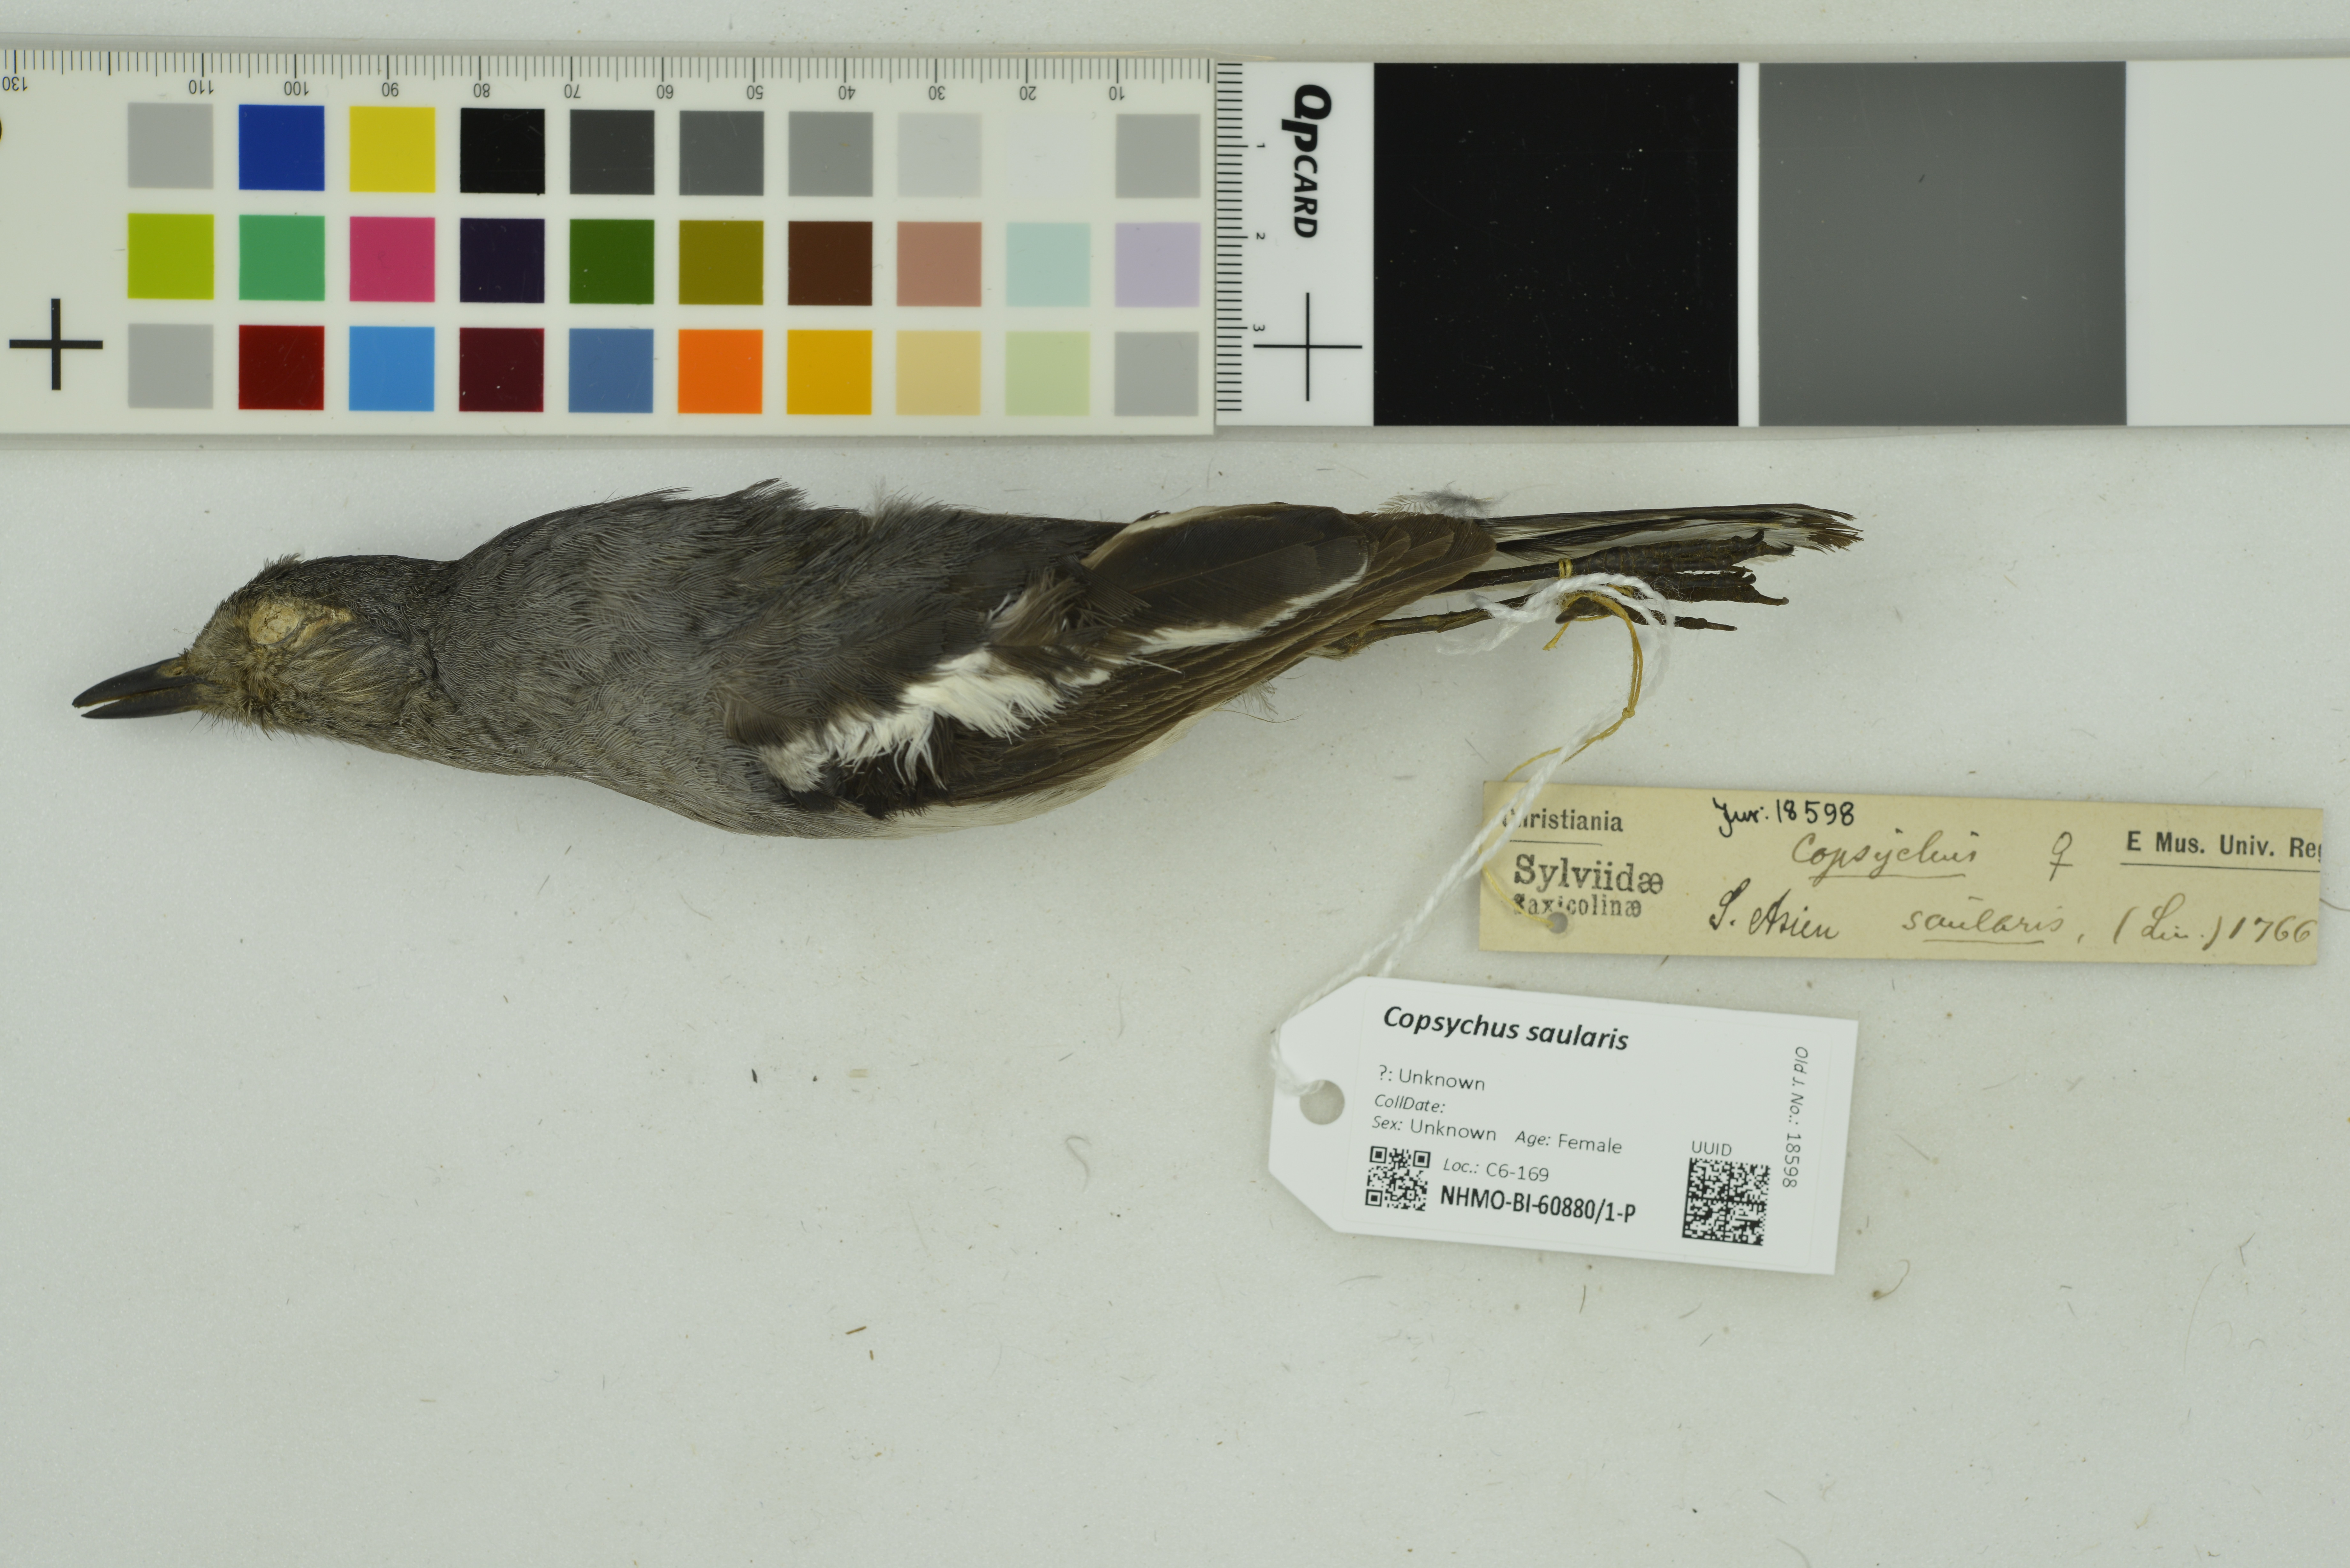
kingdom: Animalia
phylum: Chordata
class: Aves
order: Passeriformes
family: Muscicapidae
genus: Copsychus
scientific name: Copsychus saularis
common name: Oriental magpie-robin
